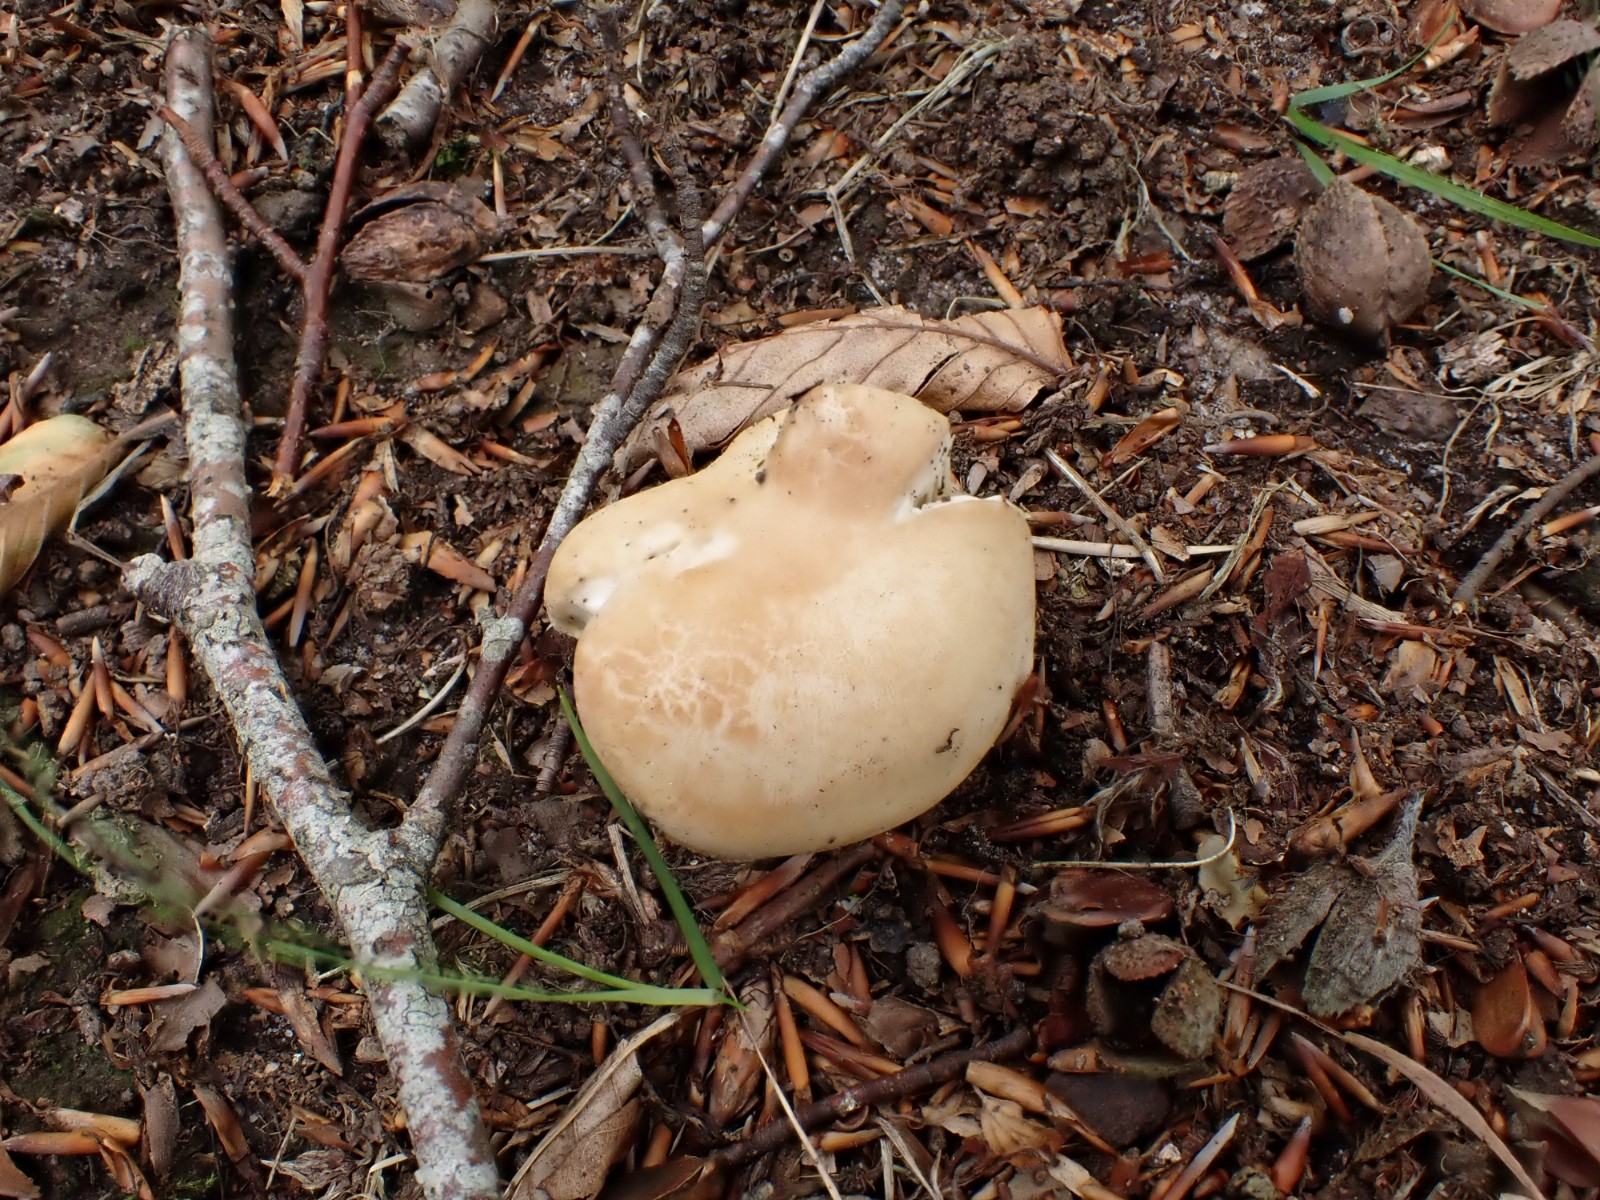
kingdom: Fungi
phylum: Basidiomycota
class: Agaricomycetes
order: Russulales
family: Russulaceae
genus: Russula
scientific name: Russula virescens
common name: spanskgrøn skørhat
